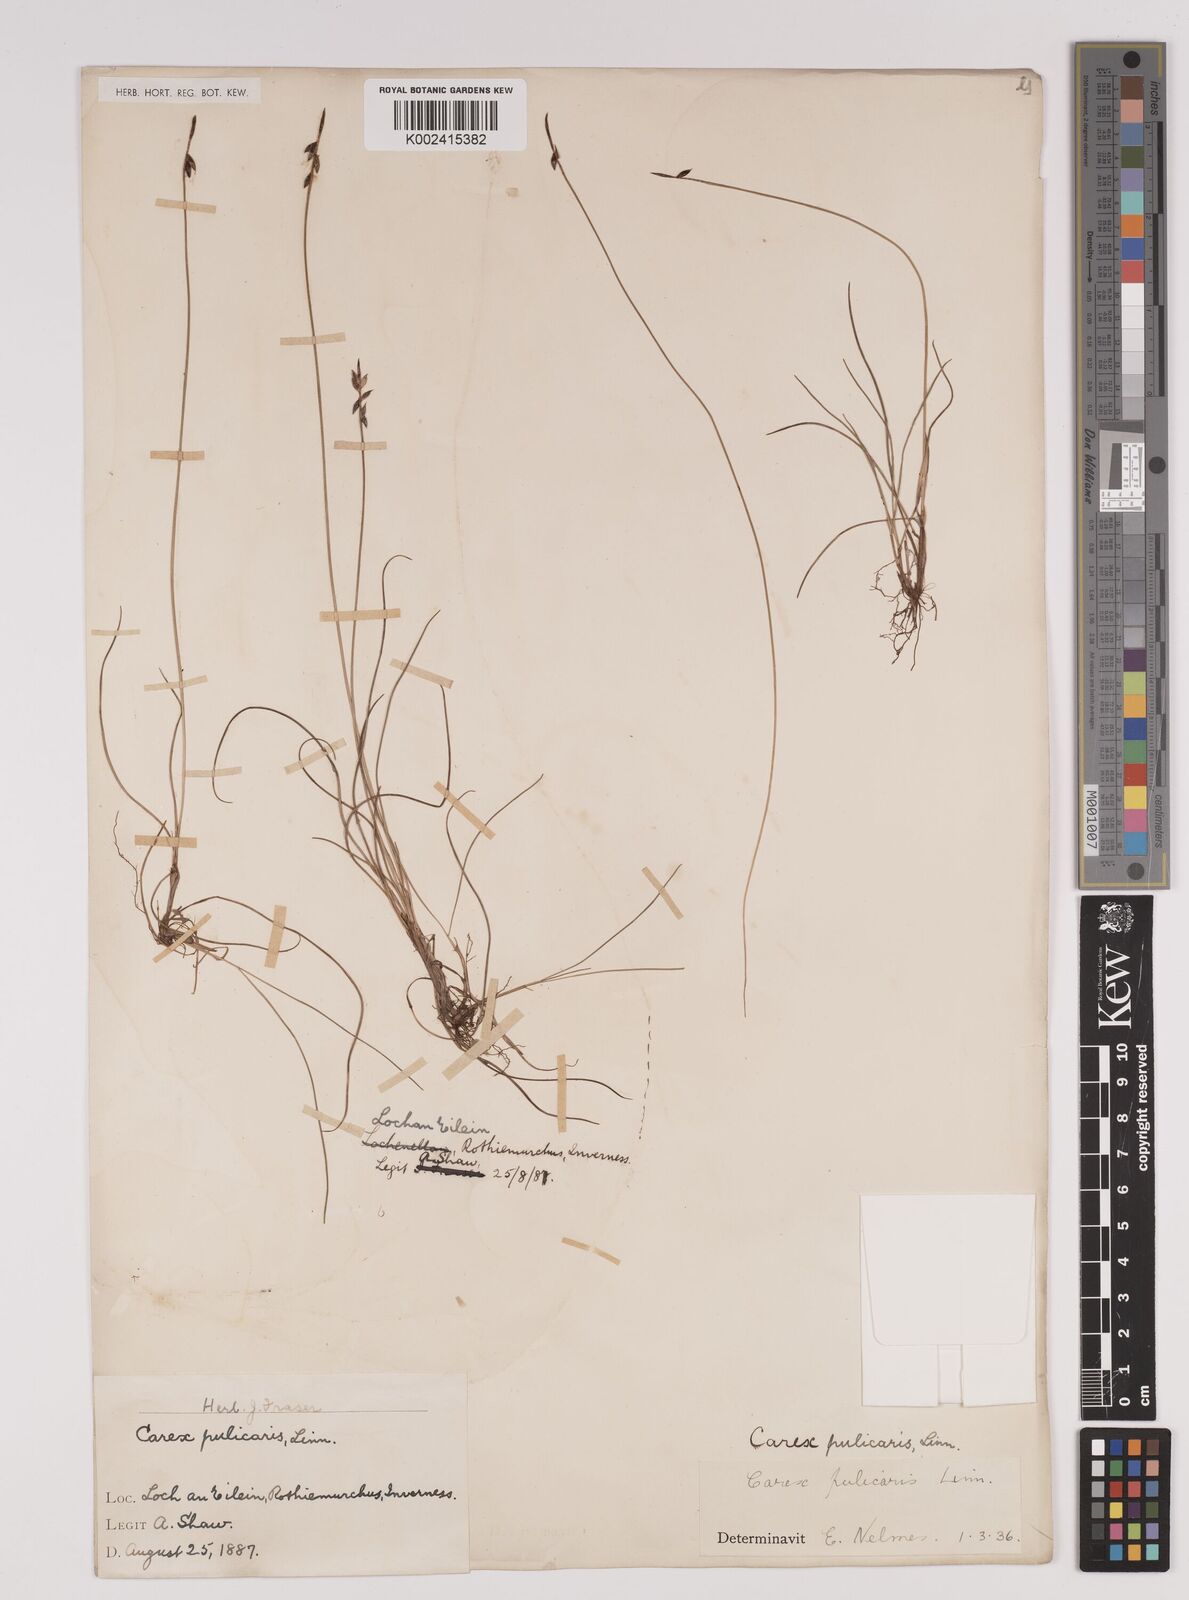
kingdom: Plantae
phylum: Tracheophyta
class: Liliopsida
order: Poales
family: Cyperaceae
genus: Carex
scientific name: Carex pulicaris
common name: Flea sedge
